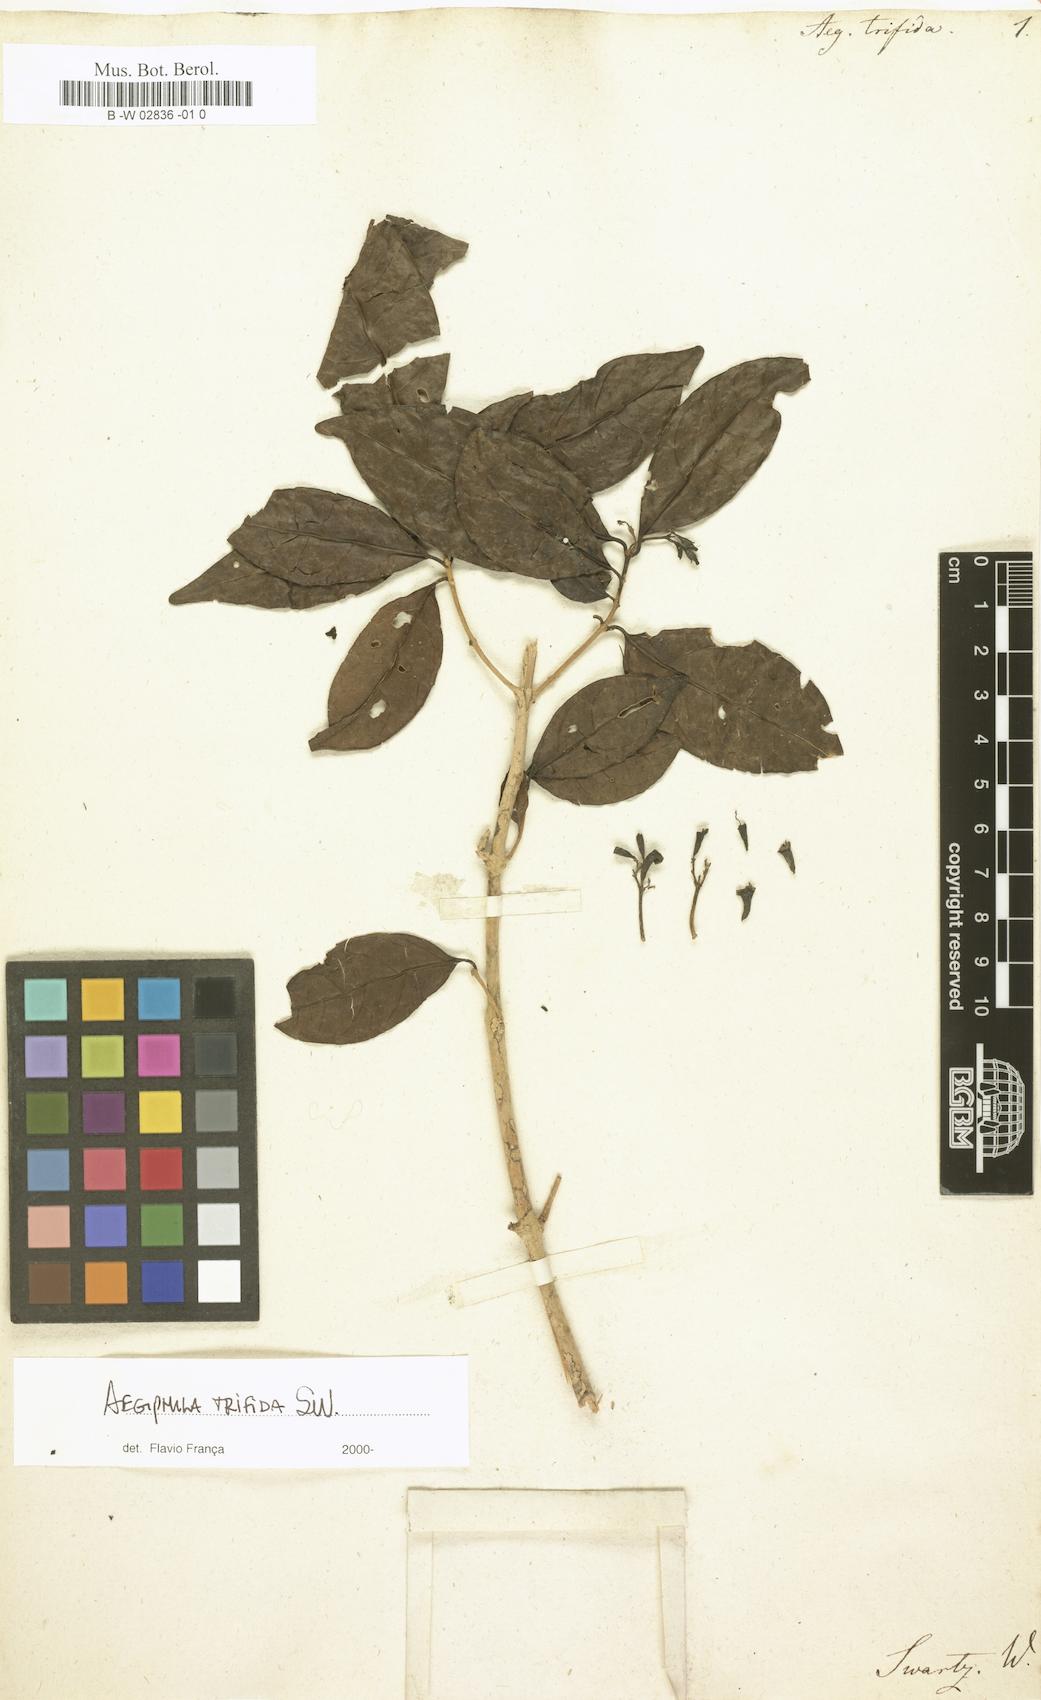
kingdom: Plantae
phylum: Tracheophyta
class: Magnoliopsida
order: Lamiales
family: Lamiaceae
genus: Aegiphila
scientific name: Aegiphila trifida
